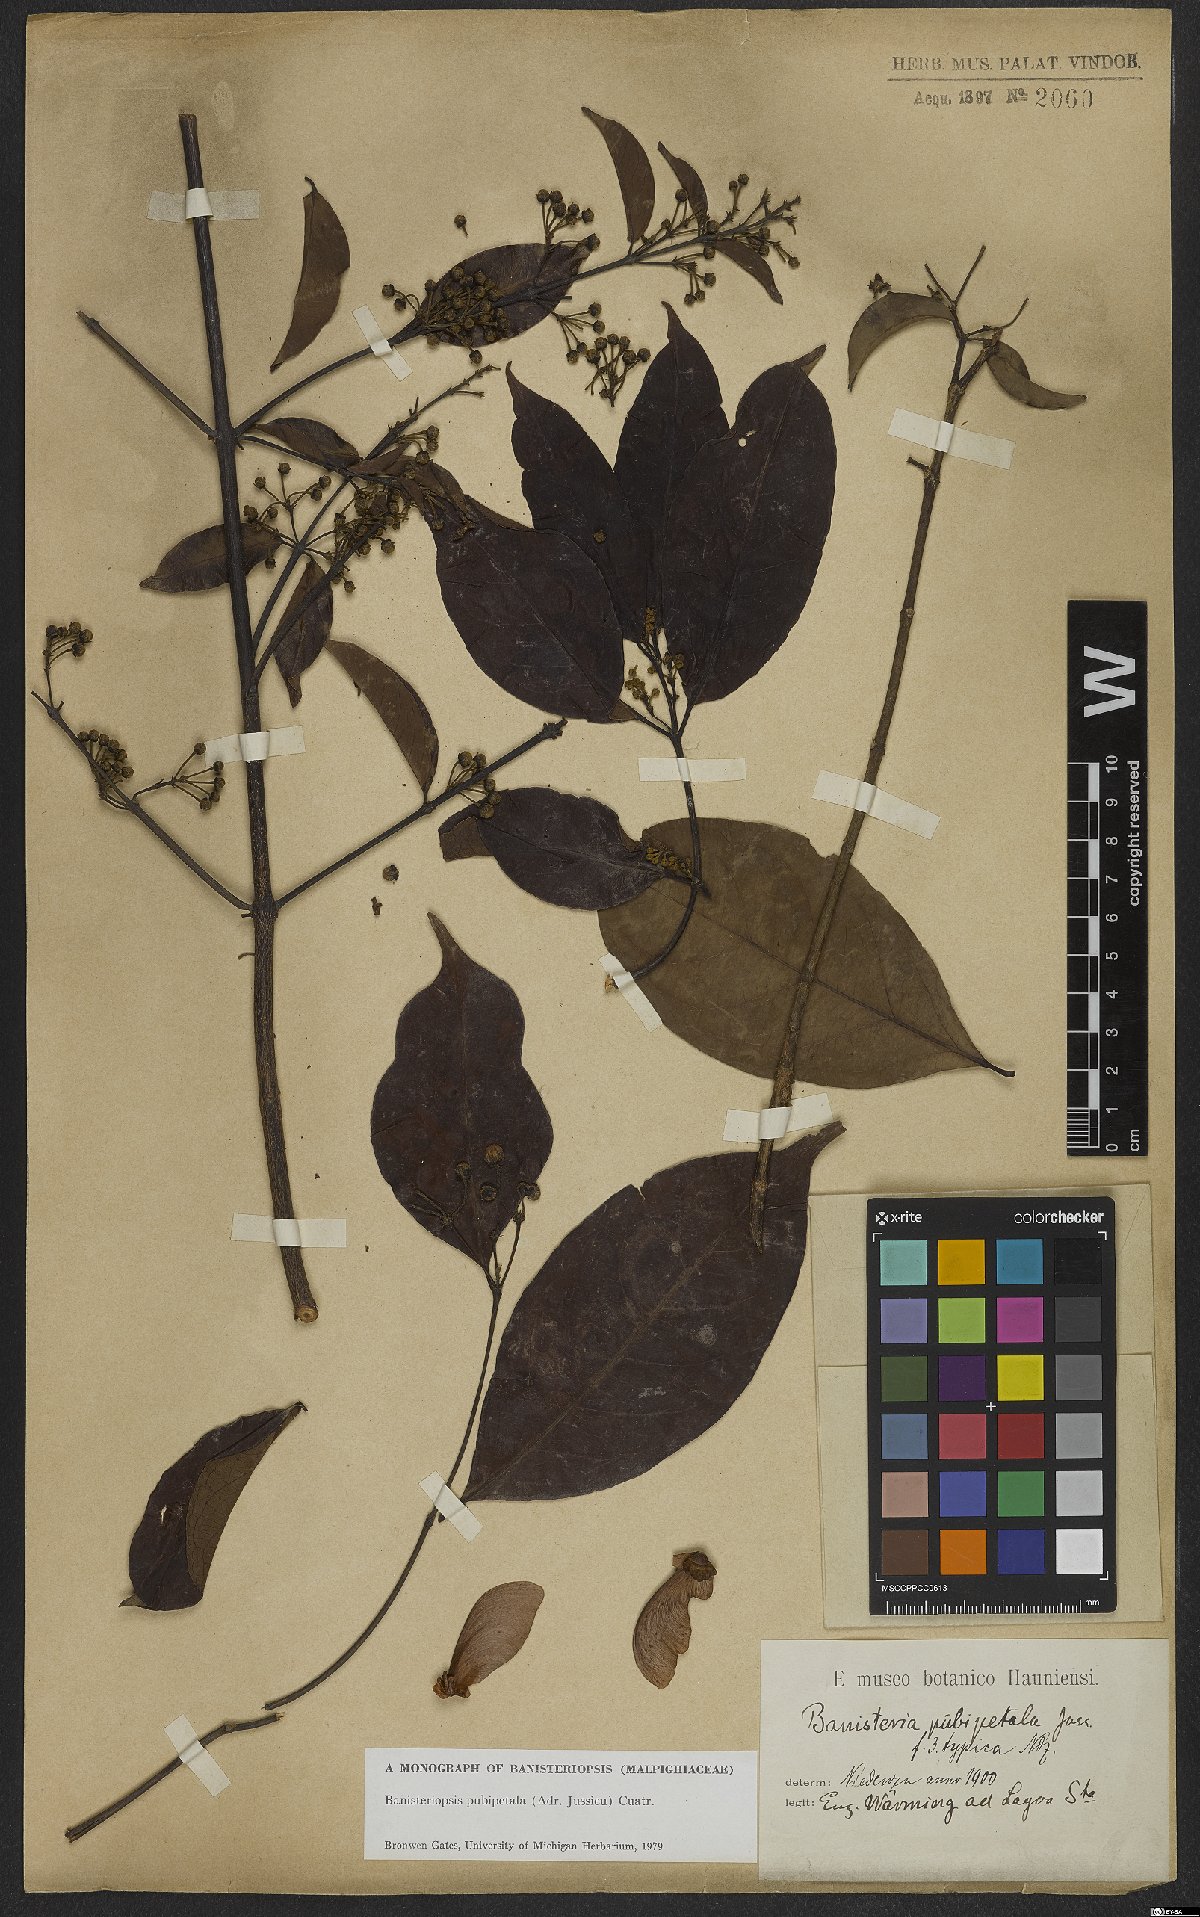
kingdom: Plantae
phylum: Tracheophyta
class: Magnoliopsida
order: Malpighiales
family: Malpighiaceae
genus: Diplopterys
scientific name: Diplopterys pubipetala
